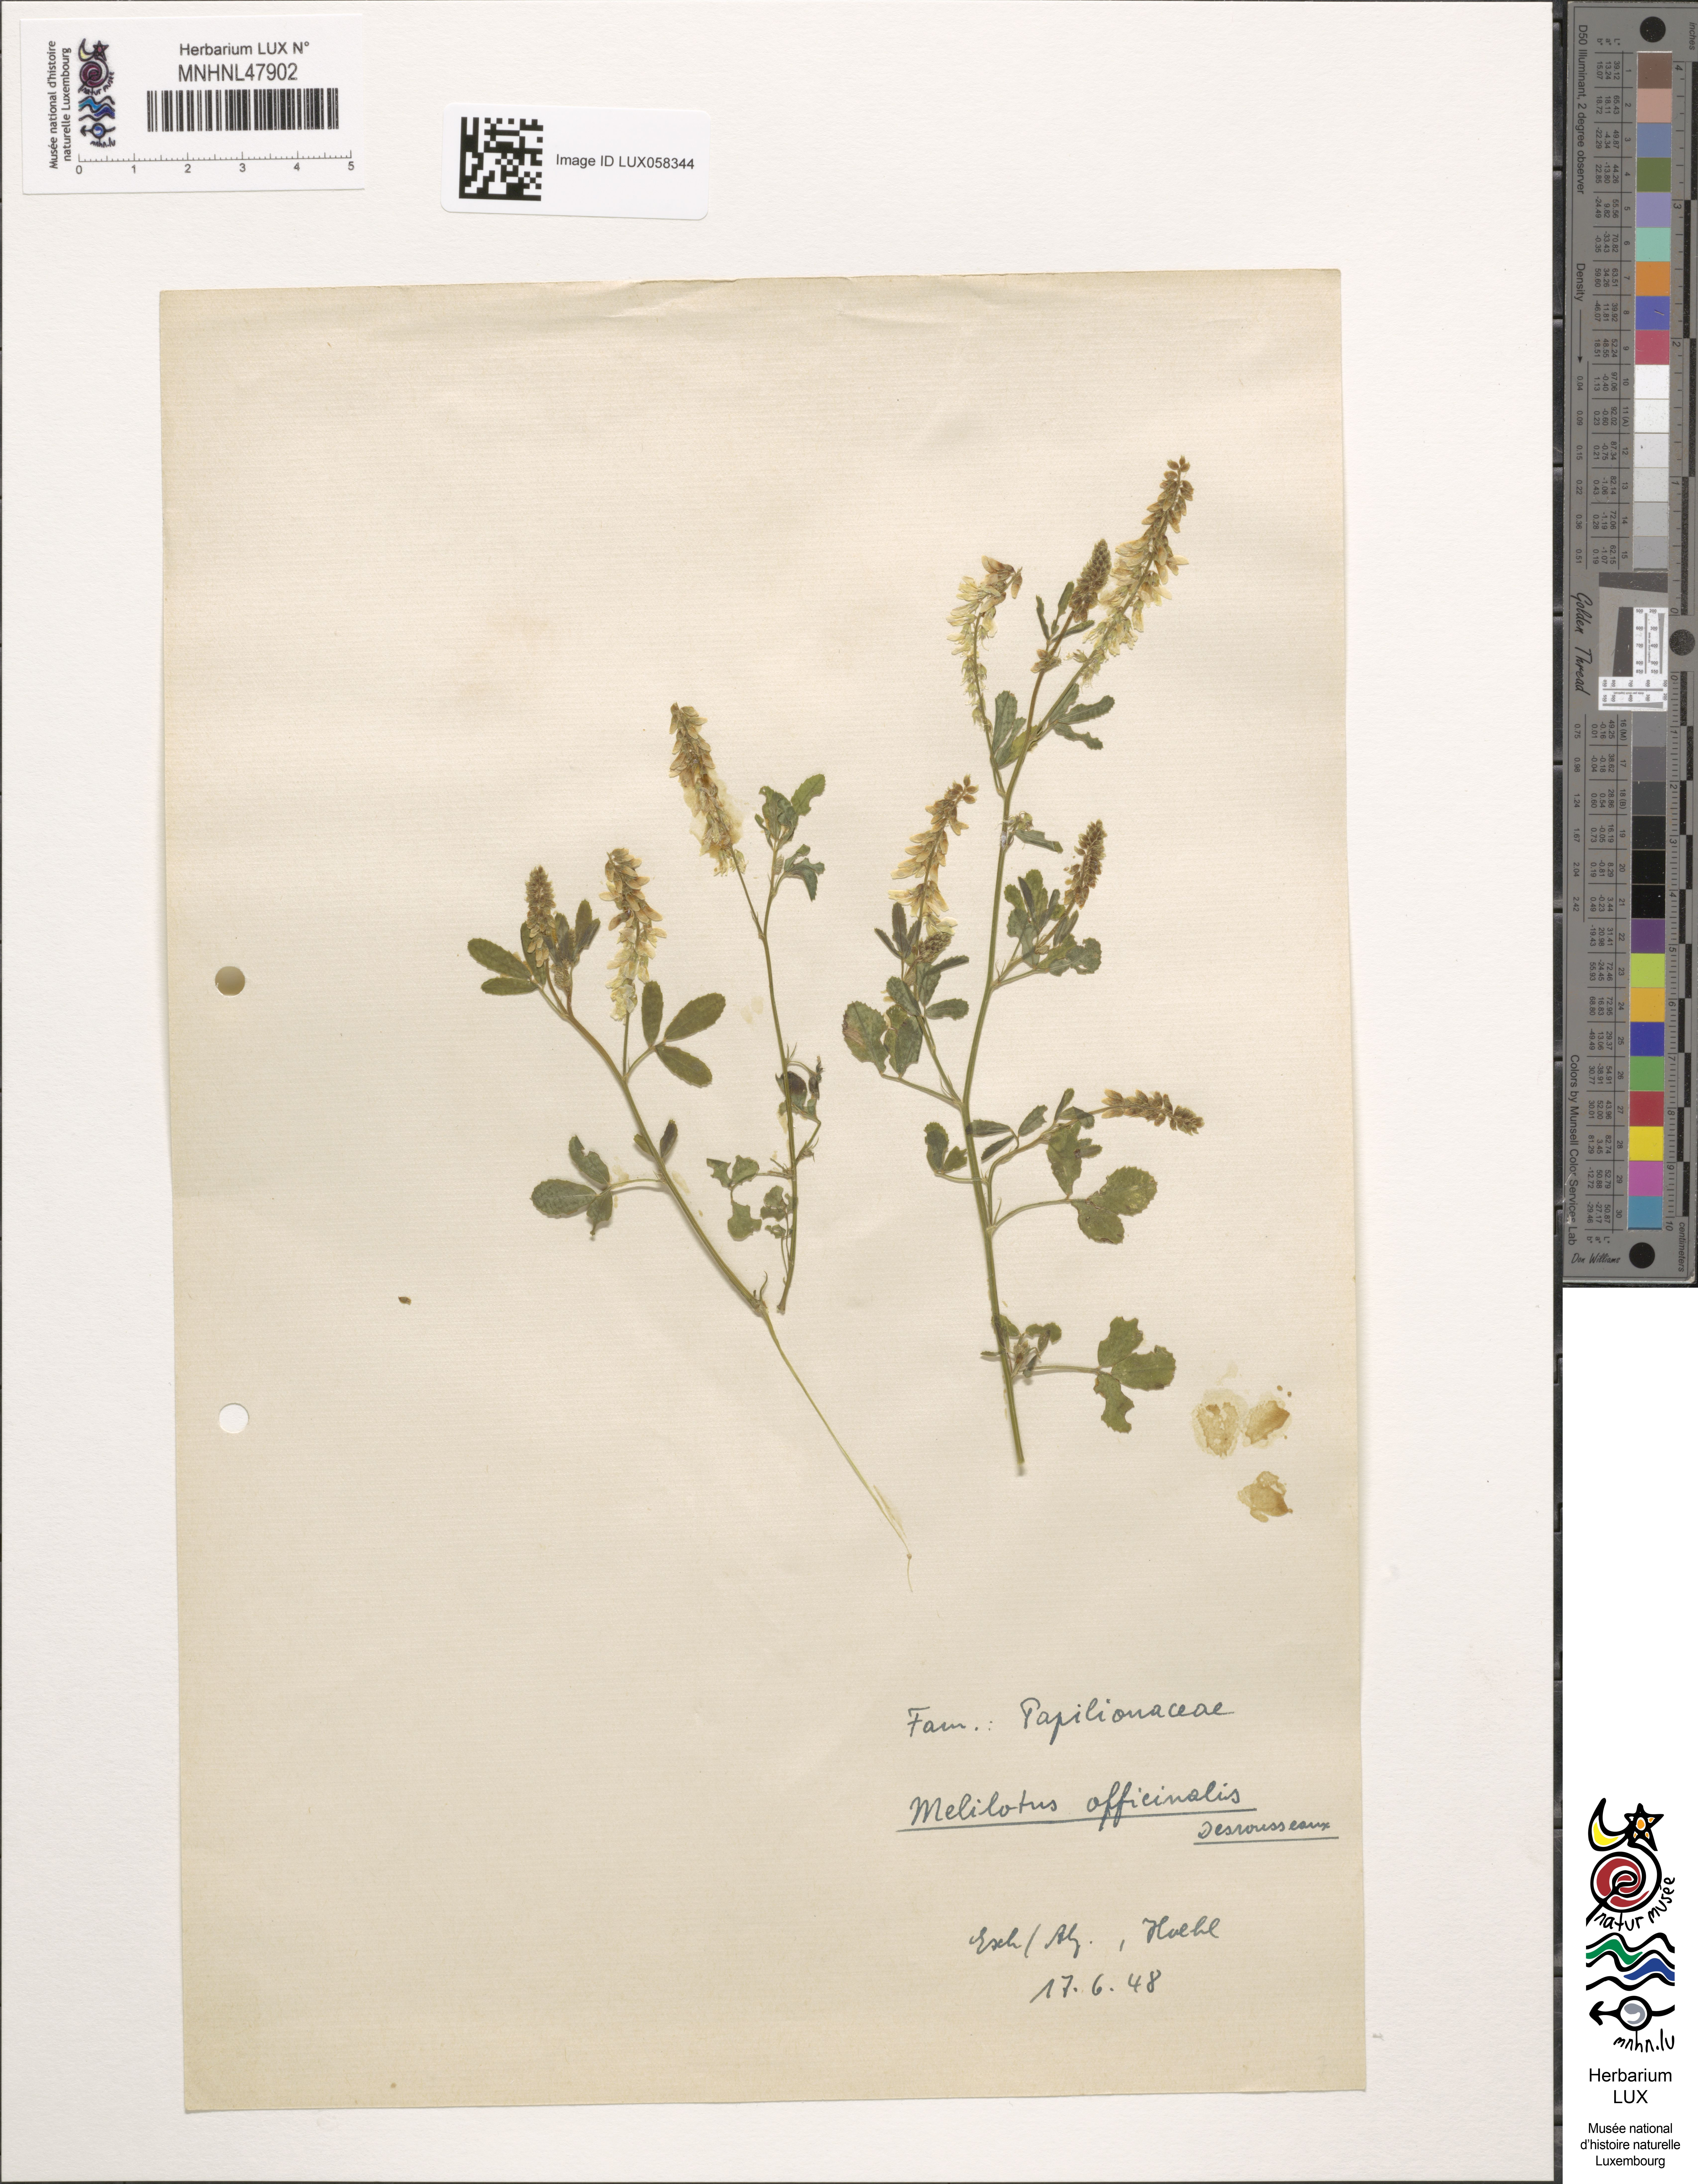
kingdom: Plantae
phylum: Tracheophyta
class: Magnoliopsida
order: Fabales
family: Fabaceae
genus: Melilotus
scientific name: Melilotus officinalis
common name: Sweetclover
